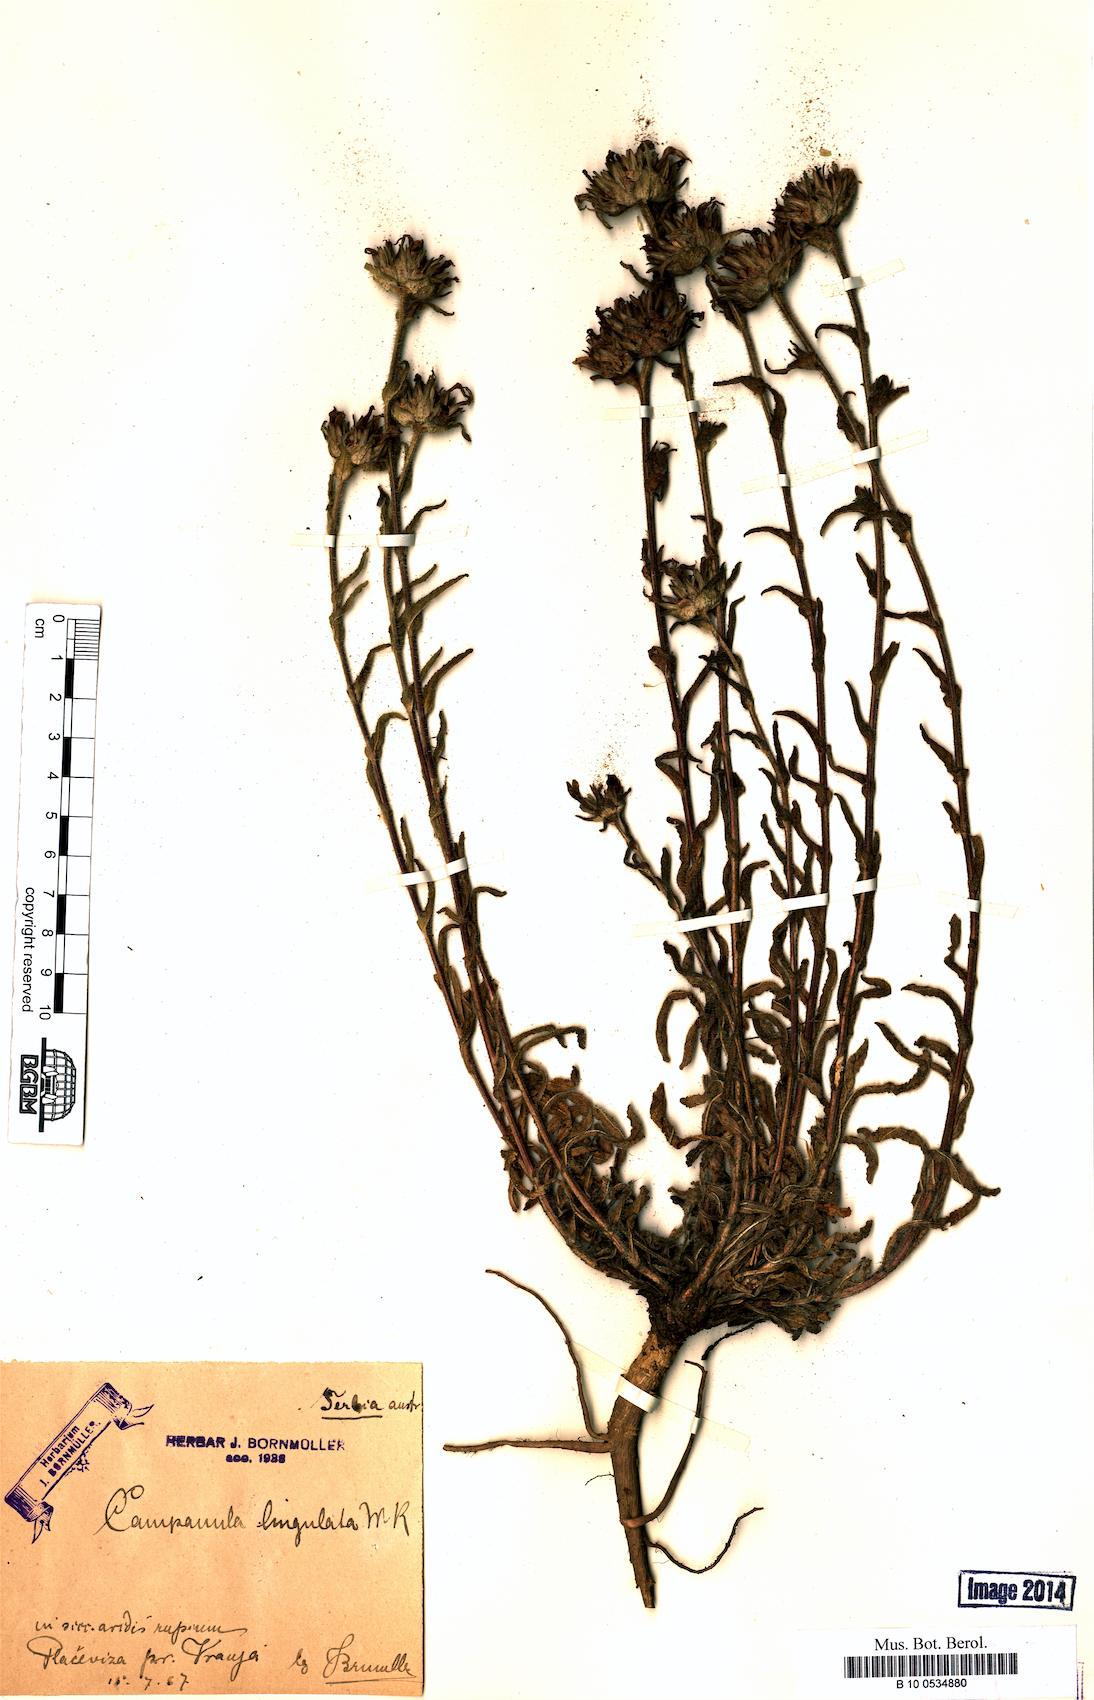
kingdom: Plantae
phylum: Tracheophyta
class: Magnoliopsida
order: Asterales
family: Campanulaceae
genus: Campanula
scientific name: Campanula lingulata
